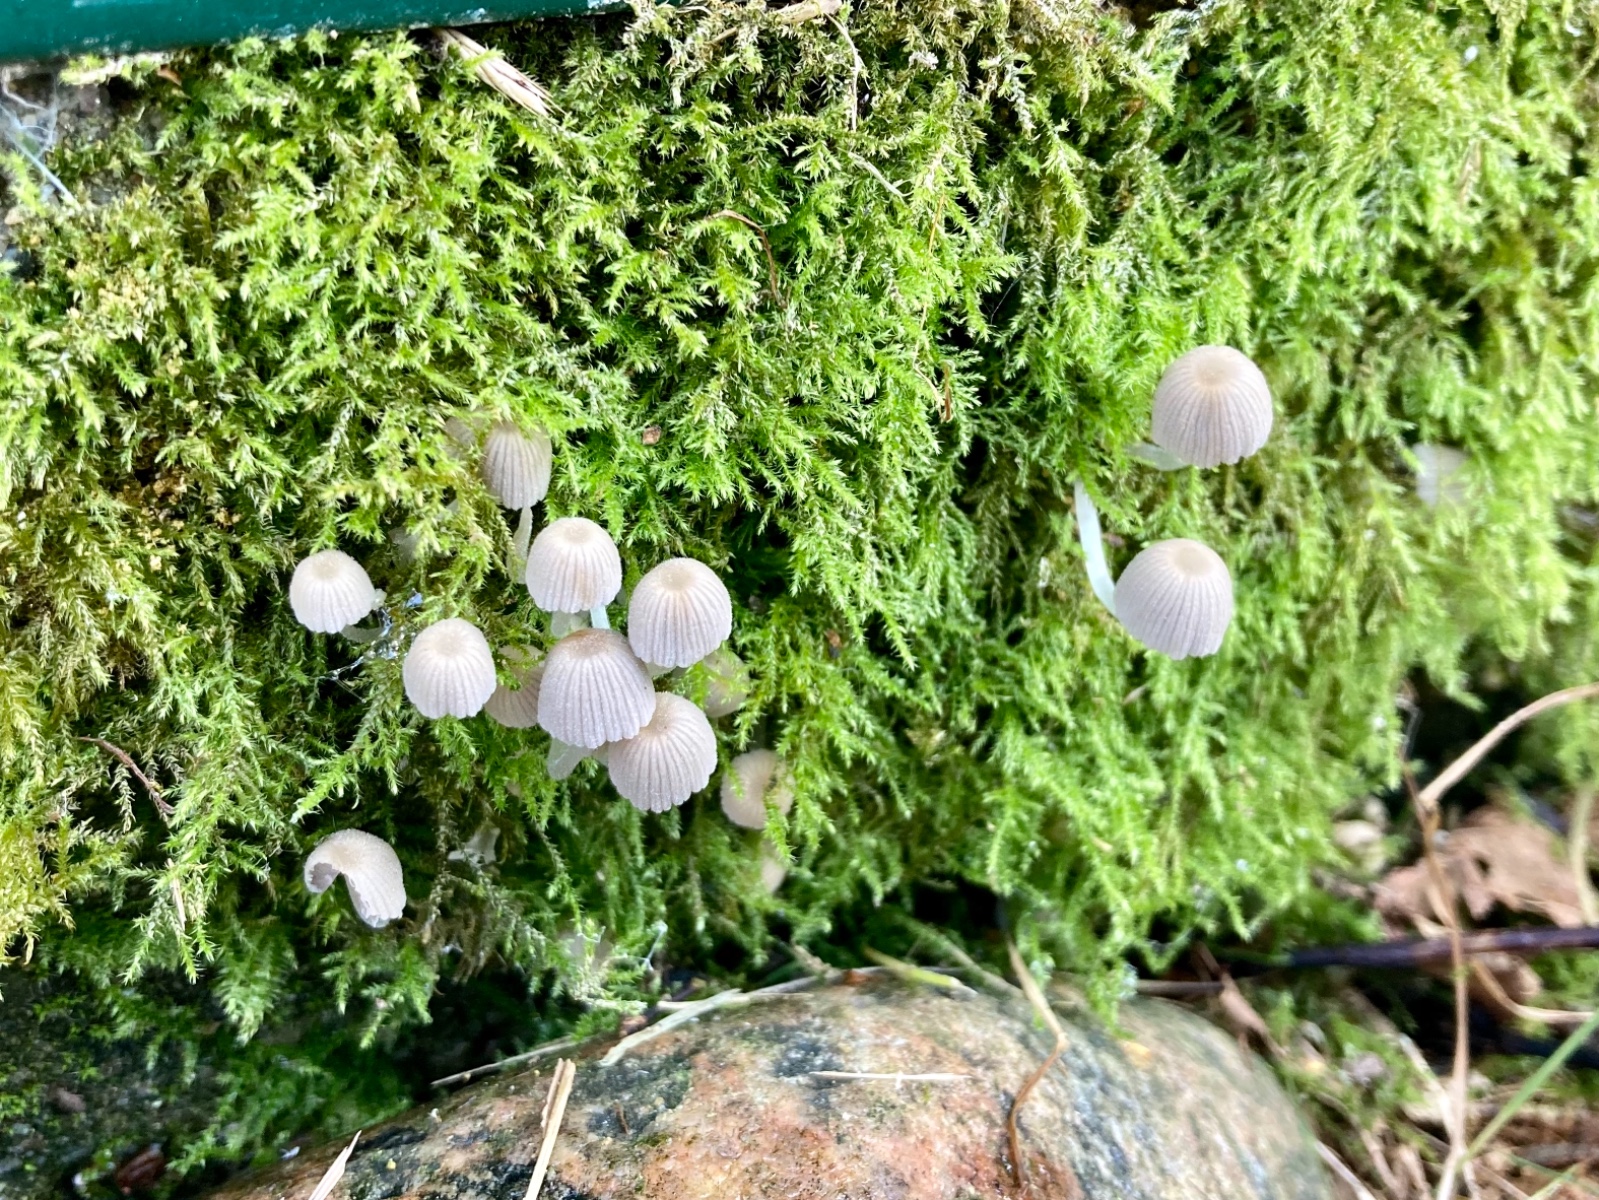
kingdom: Fungi
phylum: Basidiomycota
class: Agaricomycetes
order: Agaricales
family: Psathyrellaceae
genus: Coprinellus
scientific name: Coprinellus disseminatus
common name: bredsået blækhat
